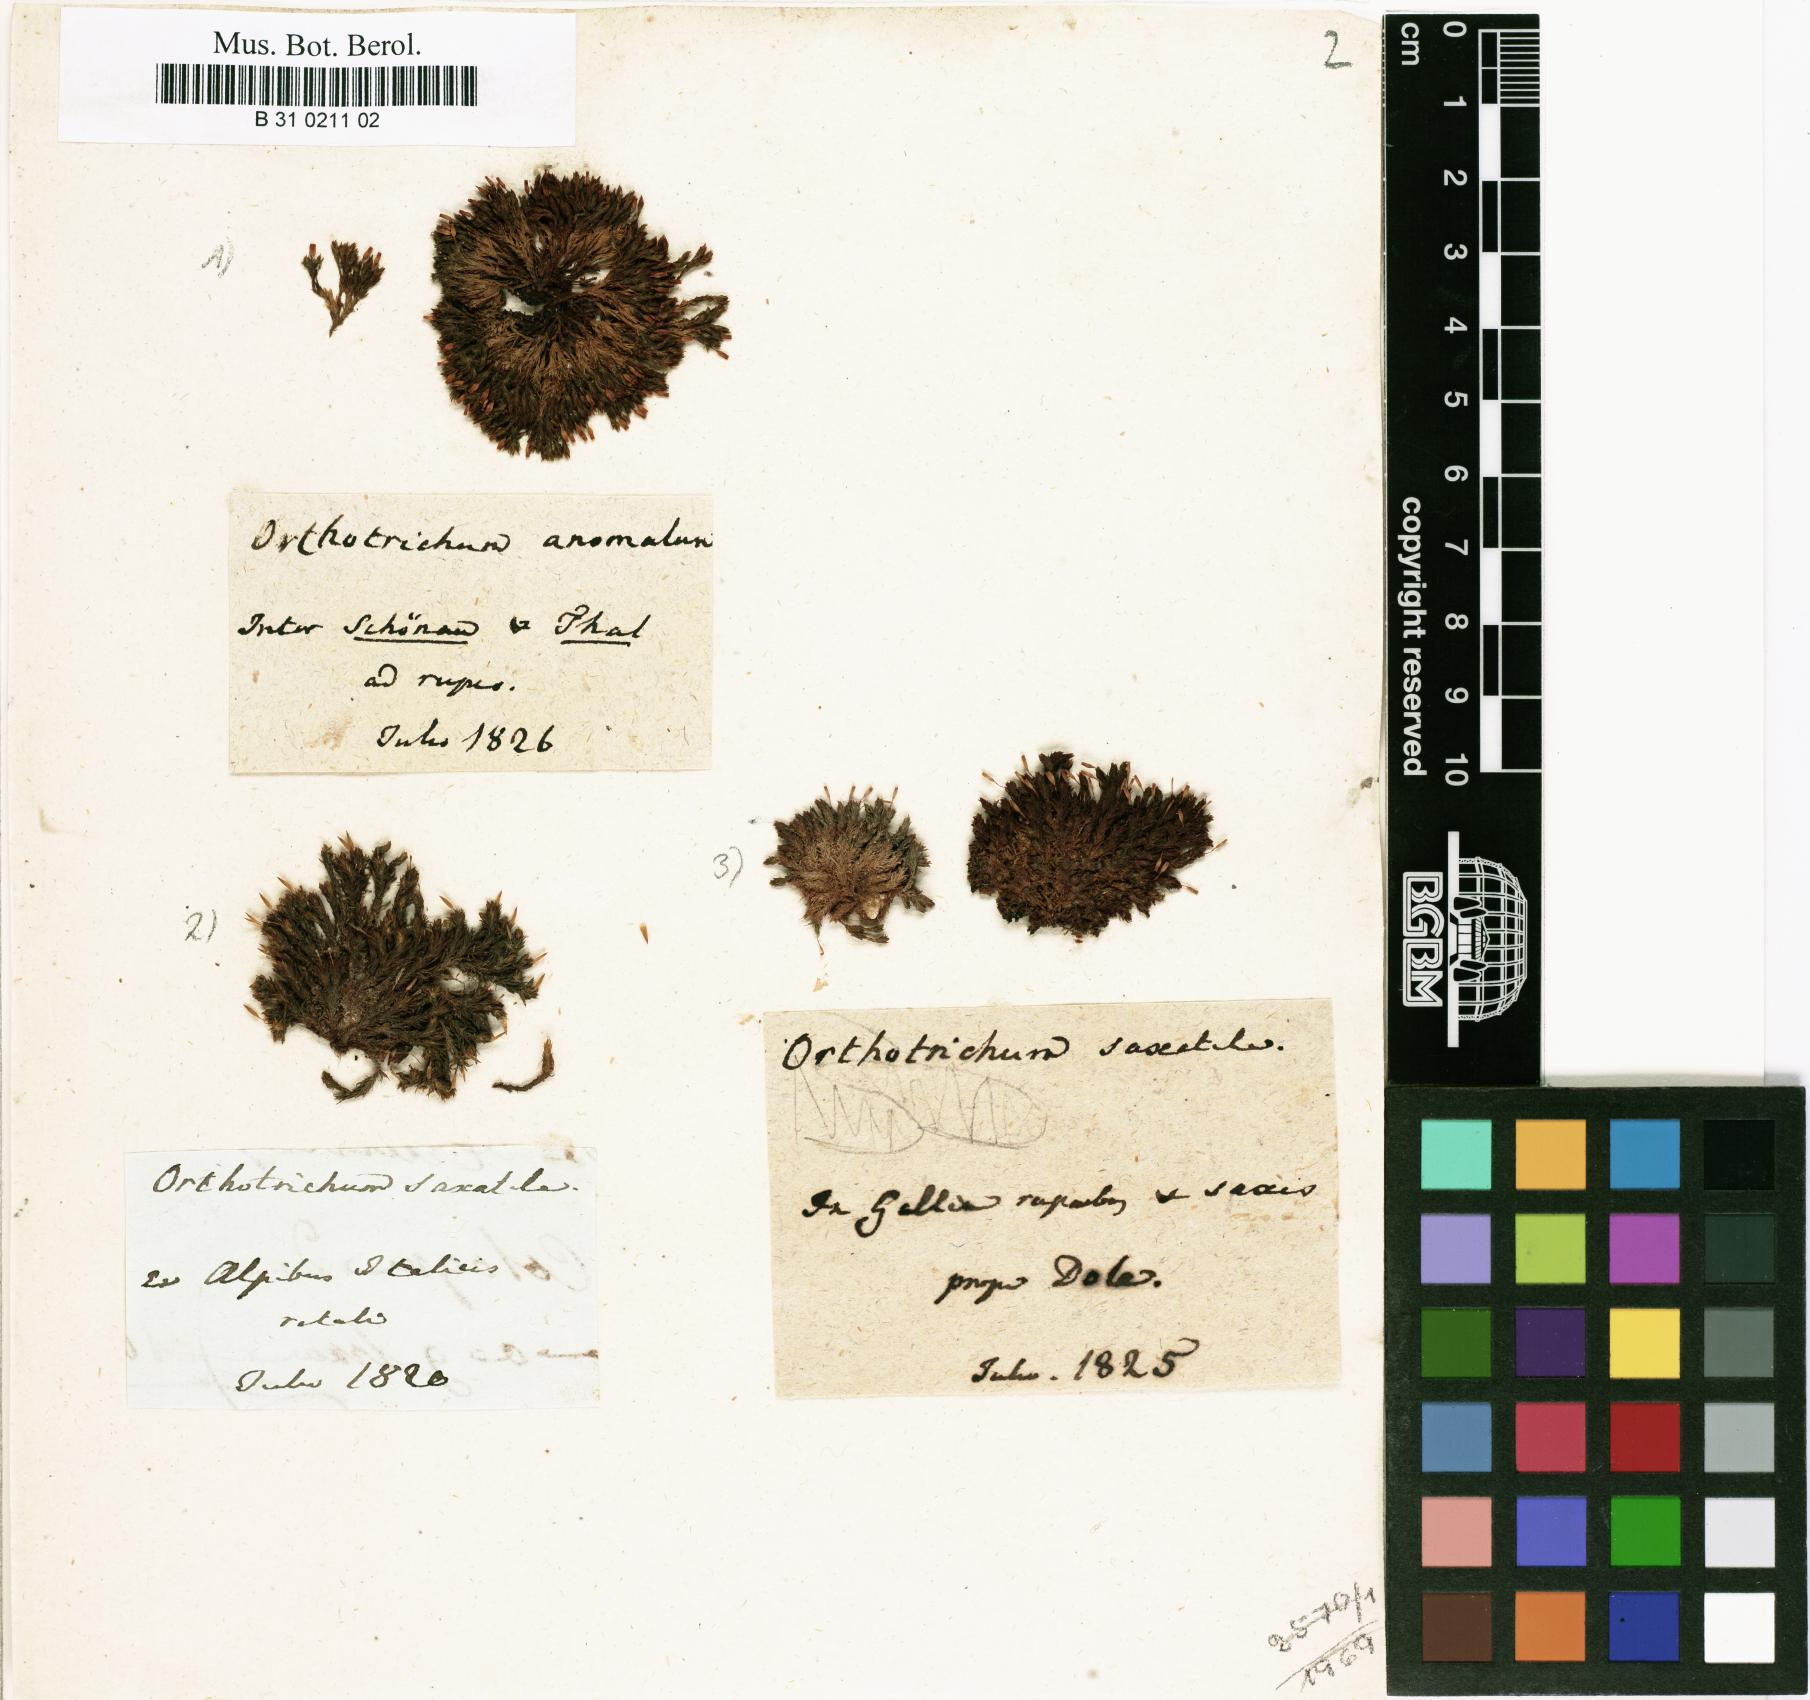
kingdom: Plantae
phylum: Bryophyta
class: Bryopsida
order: Orthotrichales
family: Orthotrichaceae
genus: Orthotrichum
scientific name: Orthotrichum anomalum
